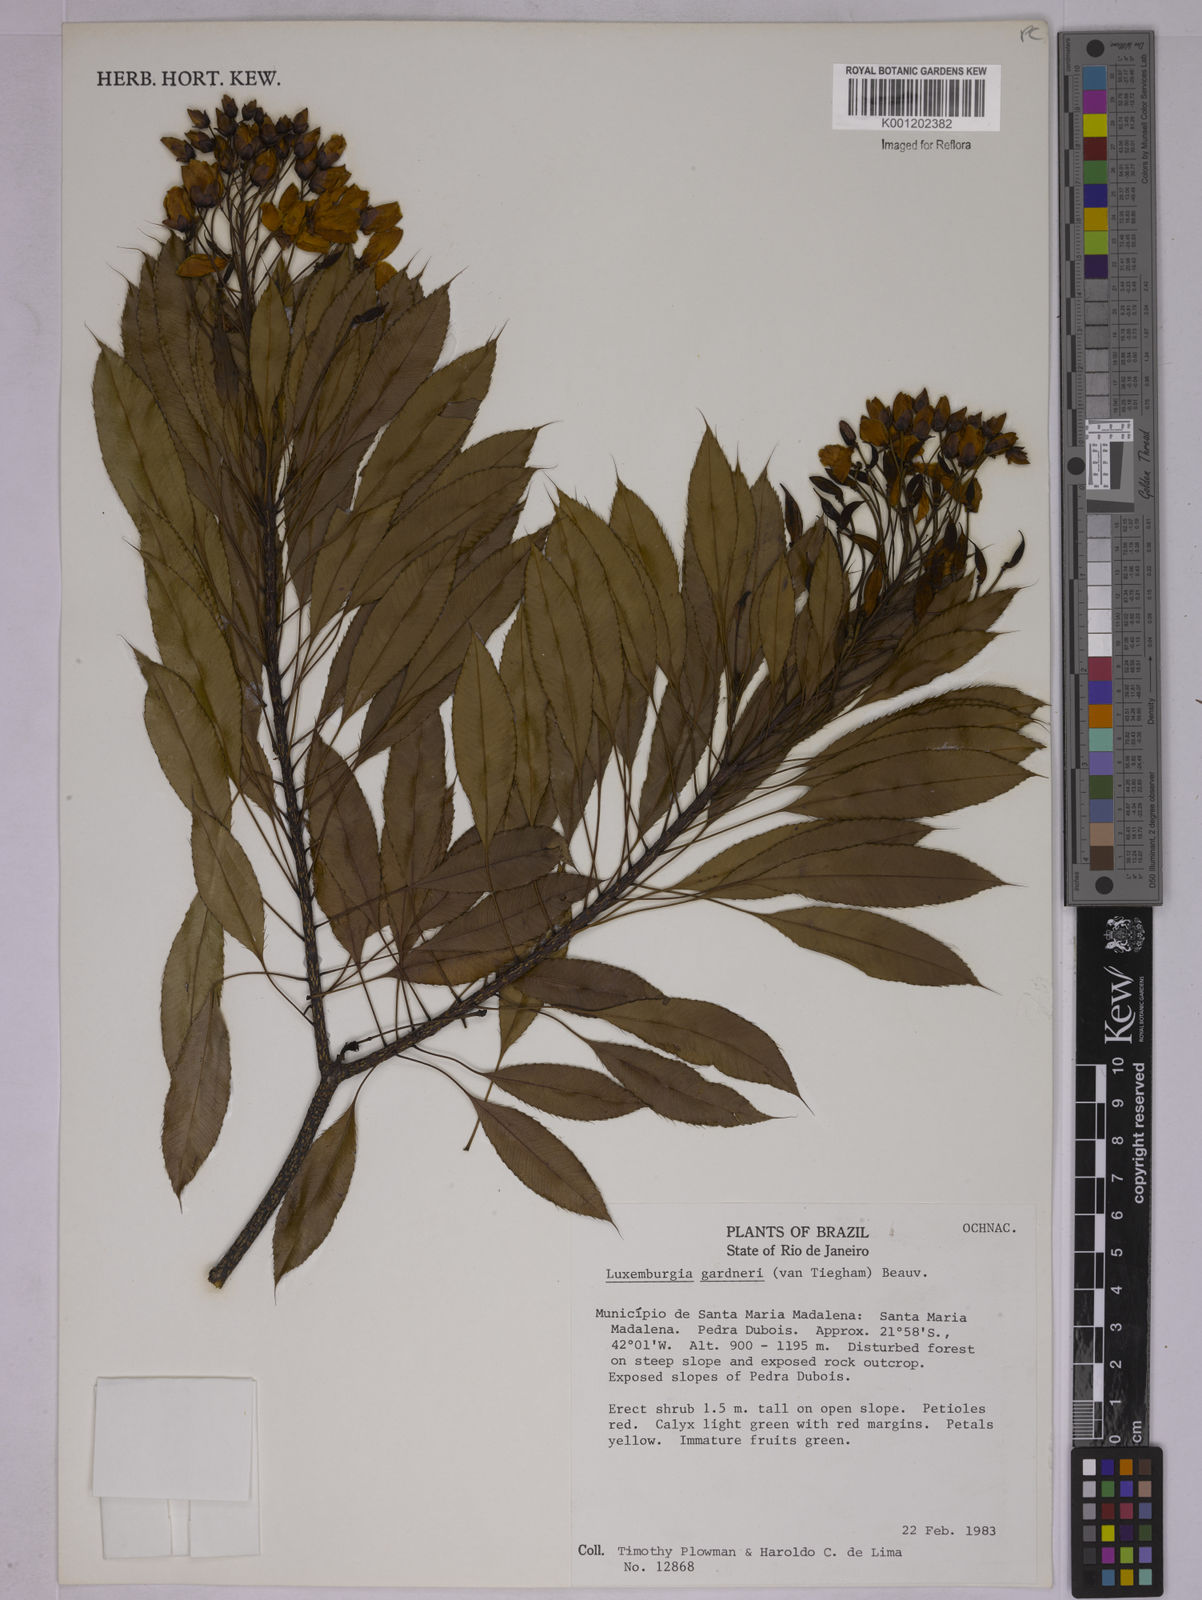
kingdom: Plantae
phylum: Tracheophyta
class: Magnoliopsida
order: Malpighiales
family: Ochnaceae
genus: Luxemburgia
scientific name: Luxemburgia ciliosa
